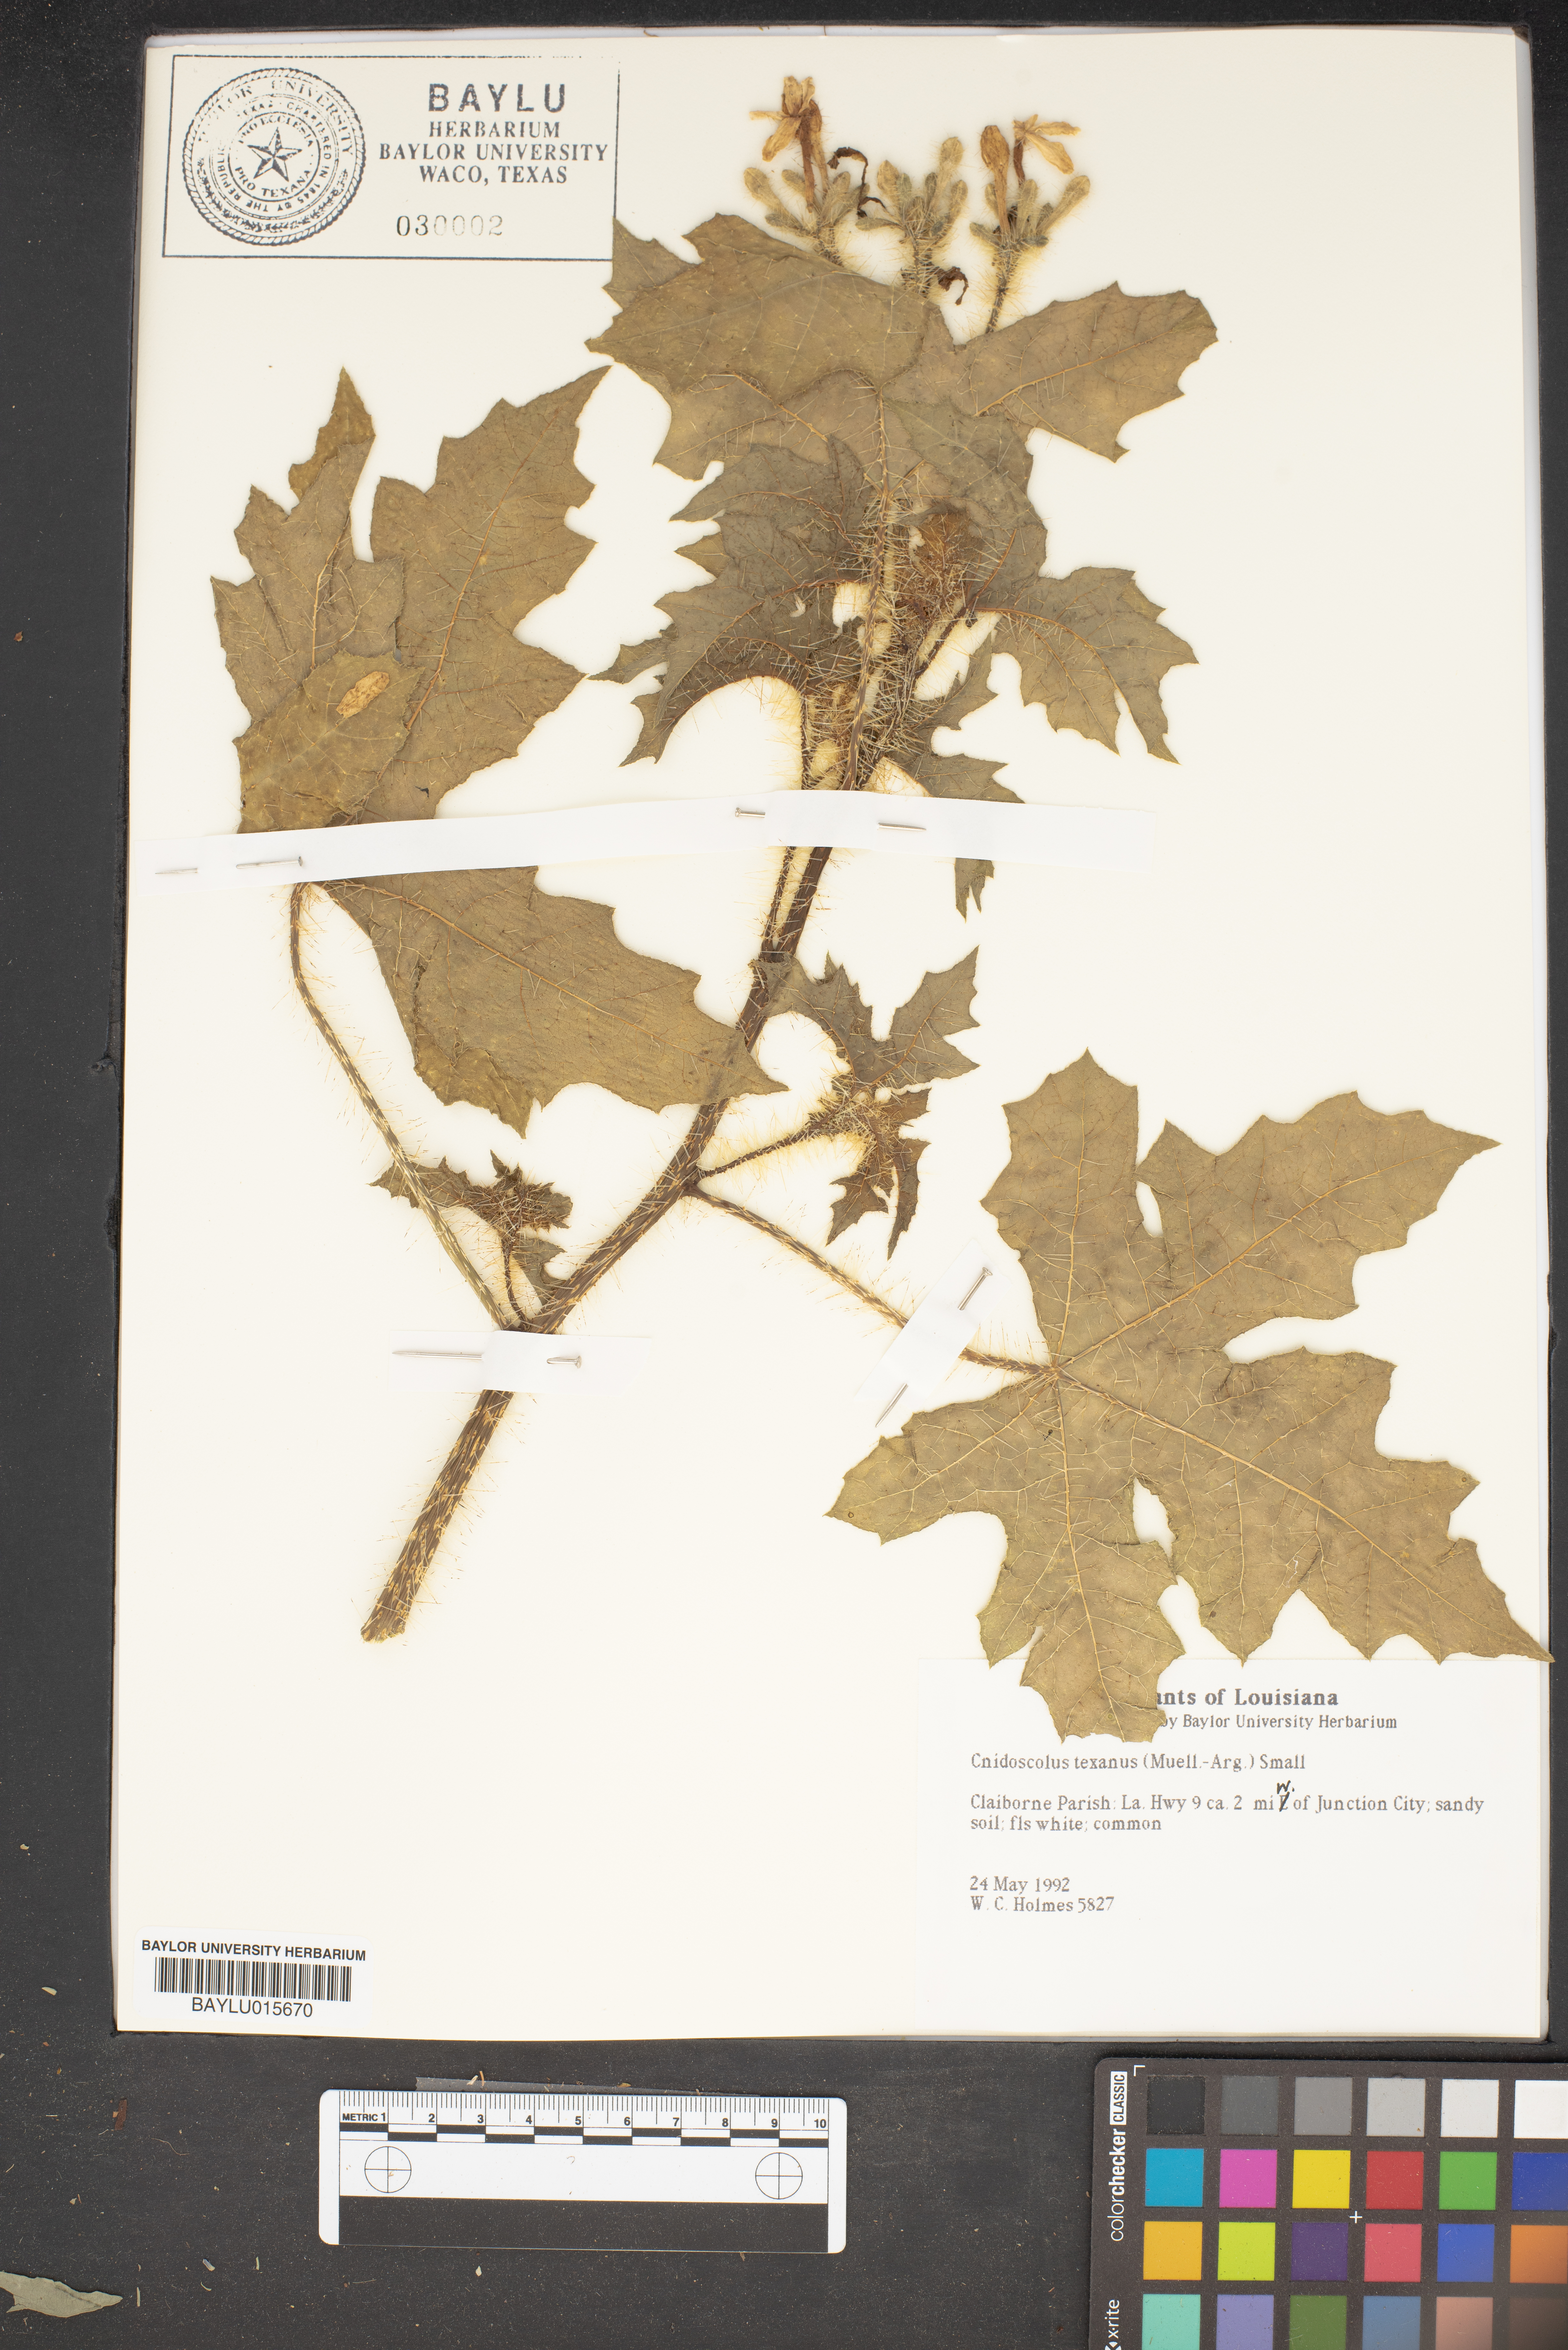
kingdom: Plantae
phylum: Tracheophyta
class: Magnoliopsida
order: Malpighiales
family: Euphorbiaceae
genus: Cnidoscolus
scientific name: Cnidoscolus texanus
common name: Texas bull-nettle
